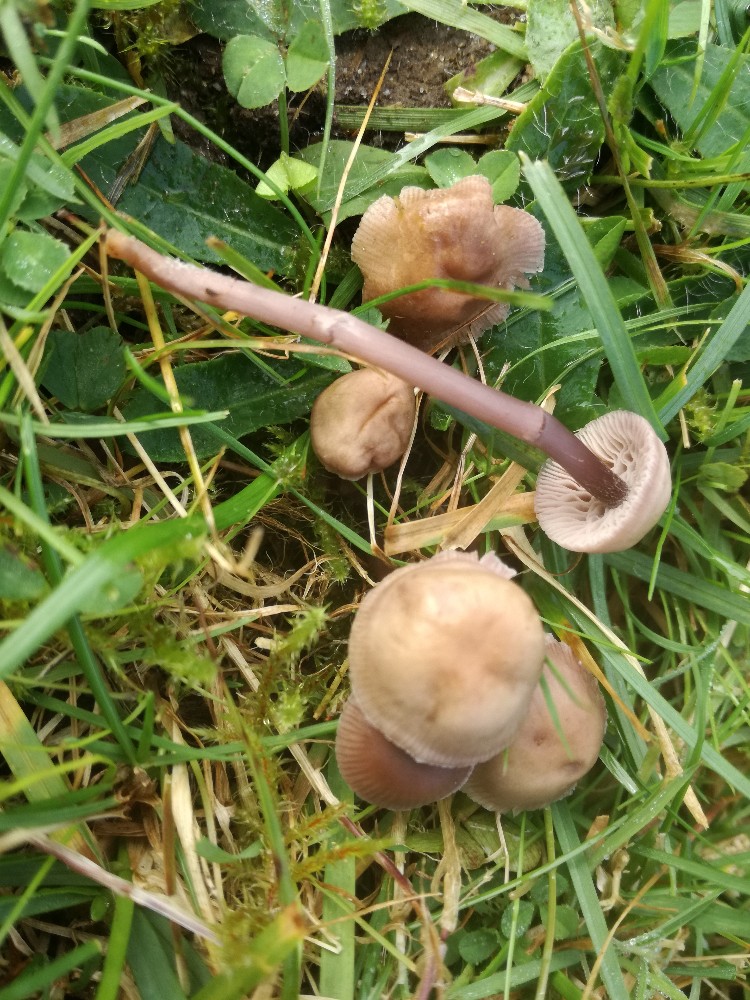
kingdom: Fungi
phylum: Basidiomycota
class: Agaricomycetes
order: Agaricales
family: Mycenaceae
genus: Mycena
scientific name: Mycena pearsoniana
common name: lillabrun huesvamp
